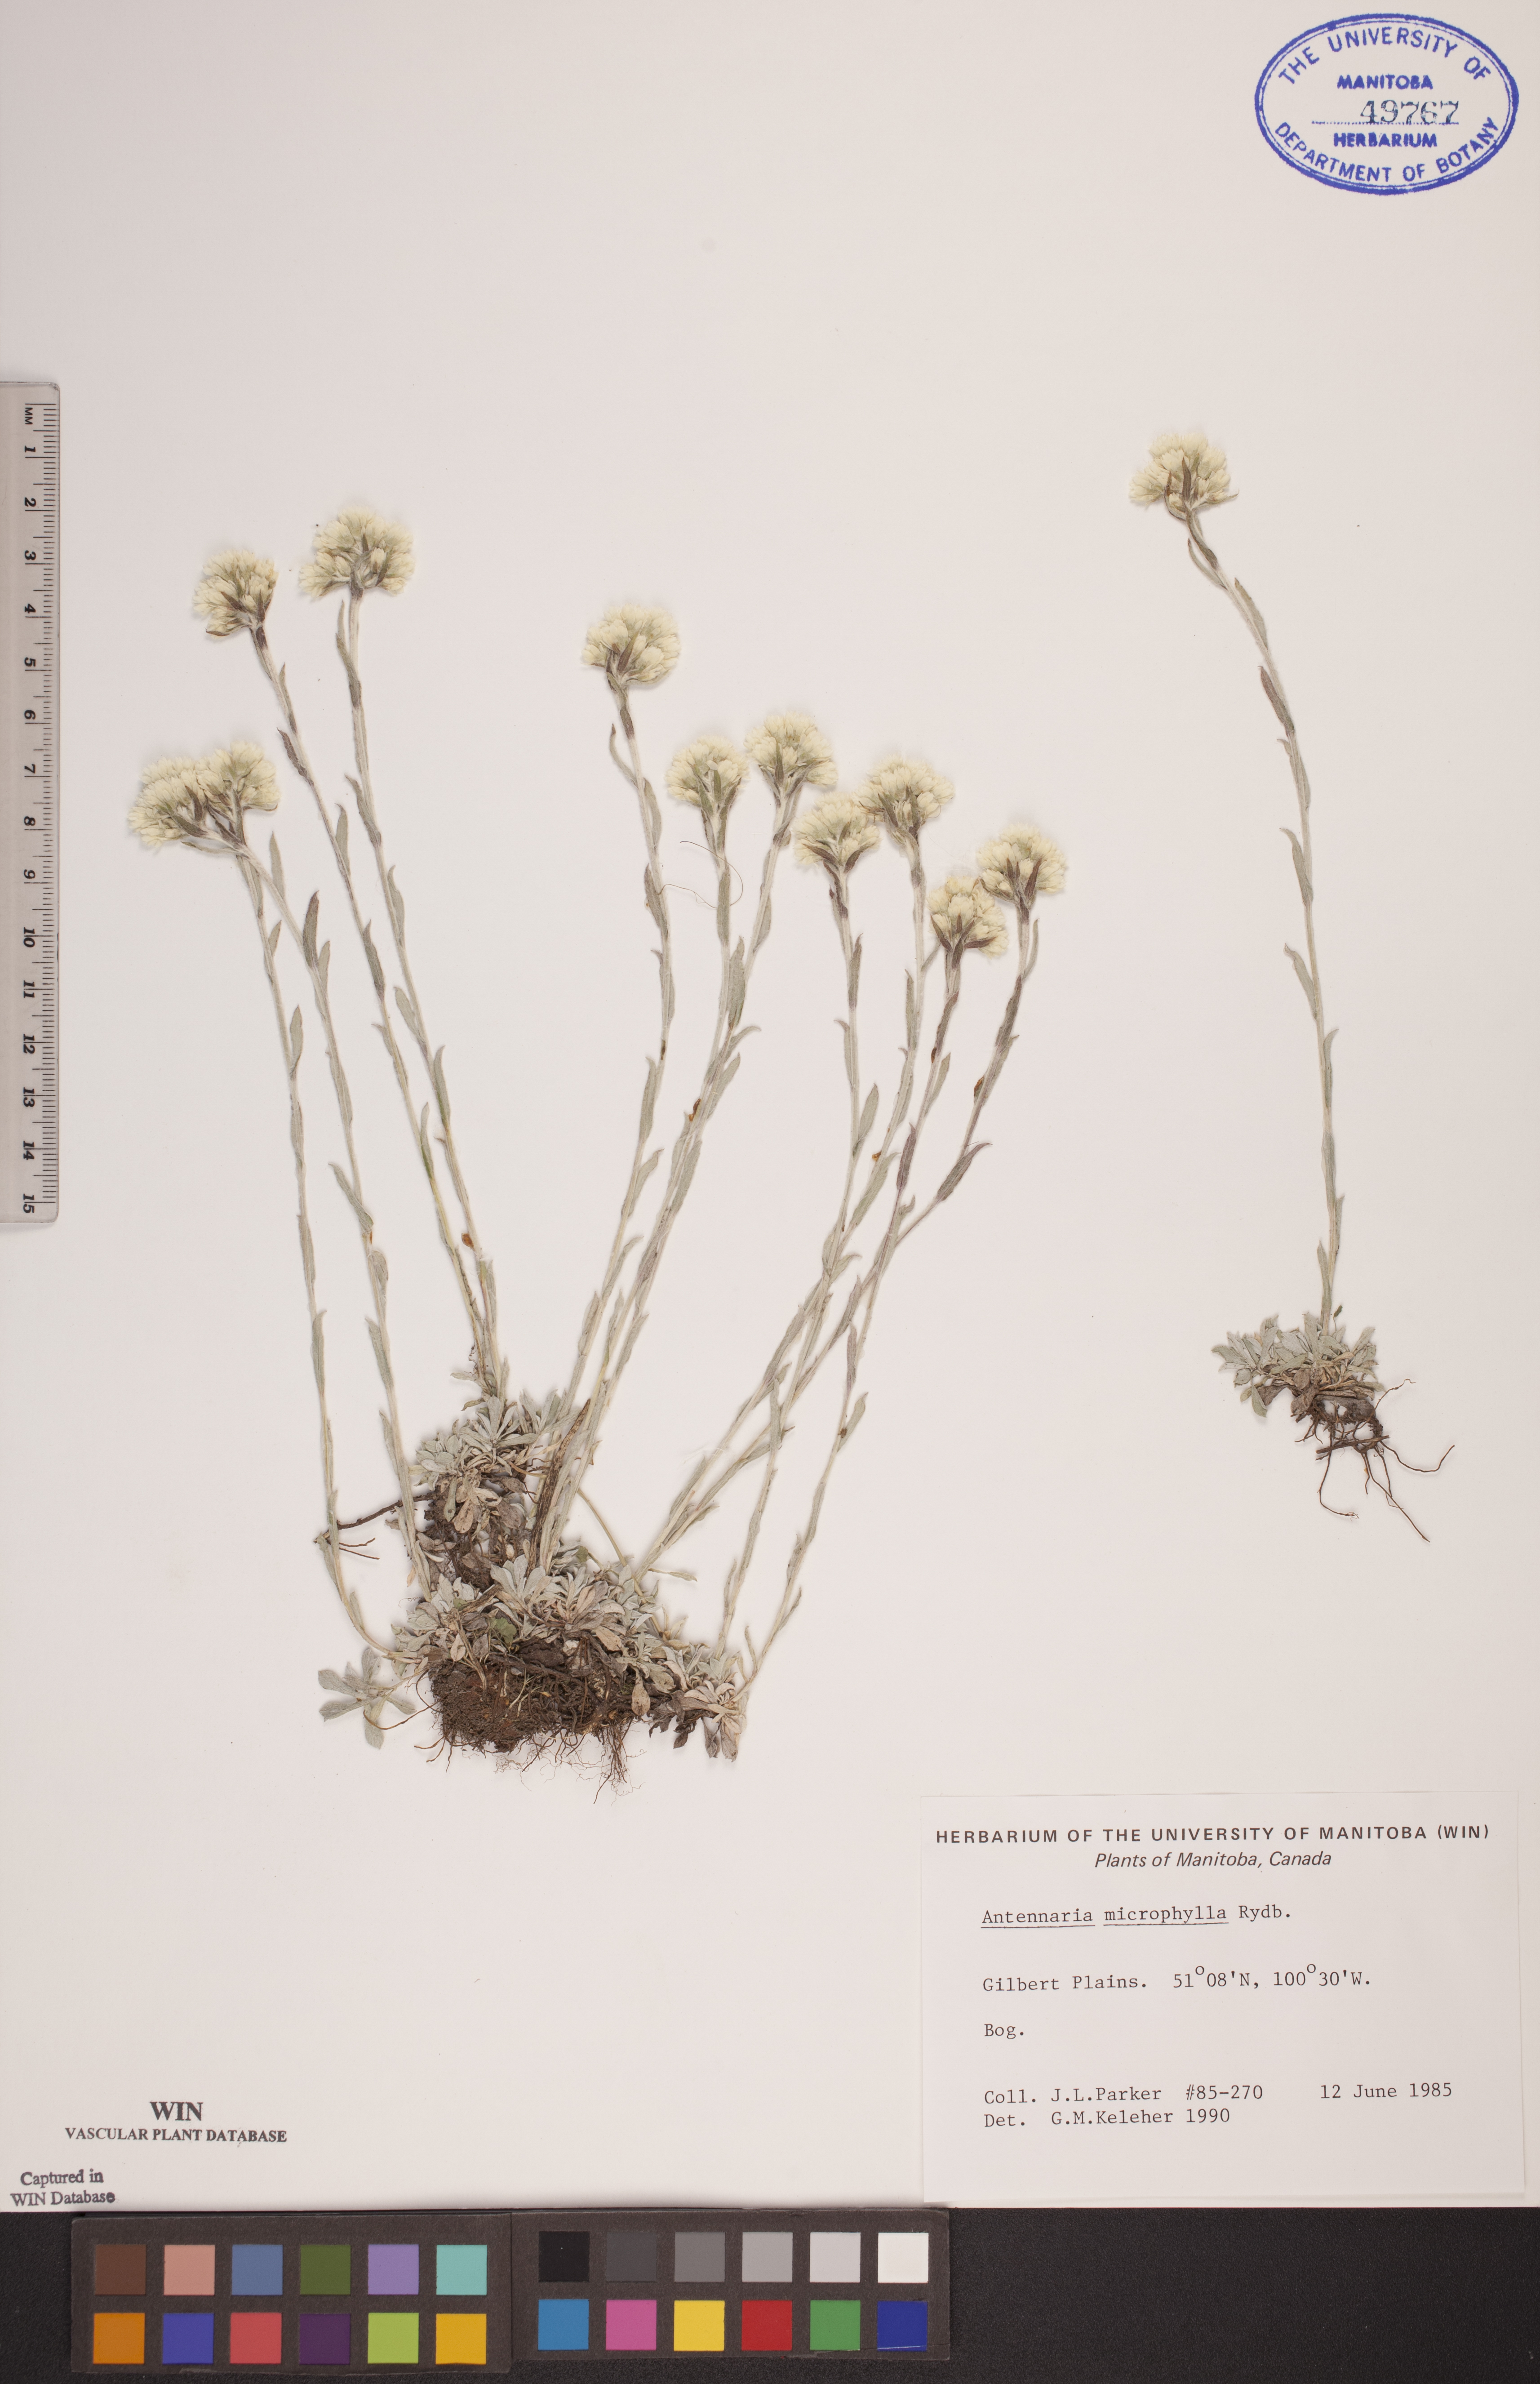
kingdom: Plantae
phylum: Tracheophyta
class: Magnoliopsida
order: Asterales
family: Asteraceae
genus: Antennaria
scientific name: Antennaria microphylla
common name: Littleleaf pussytoes
